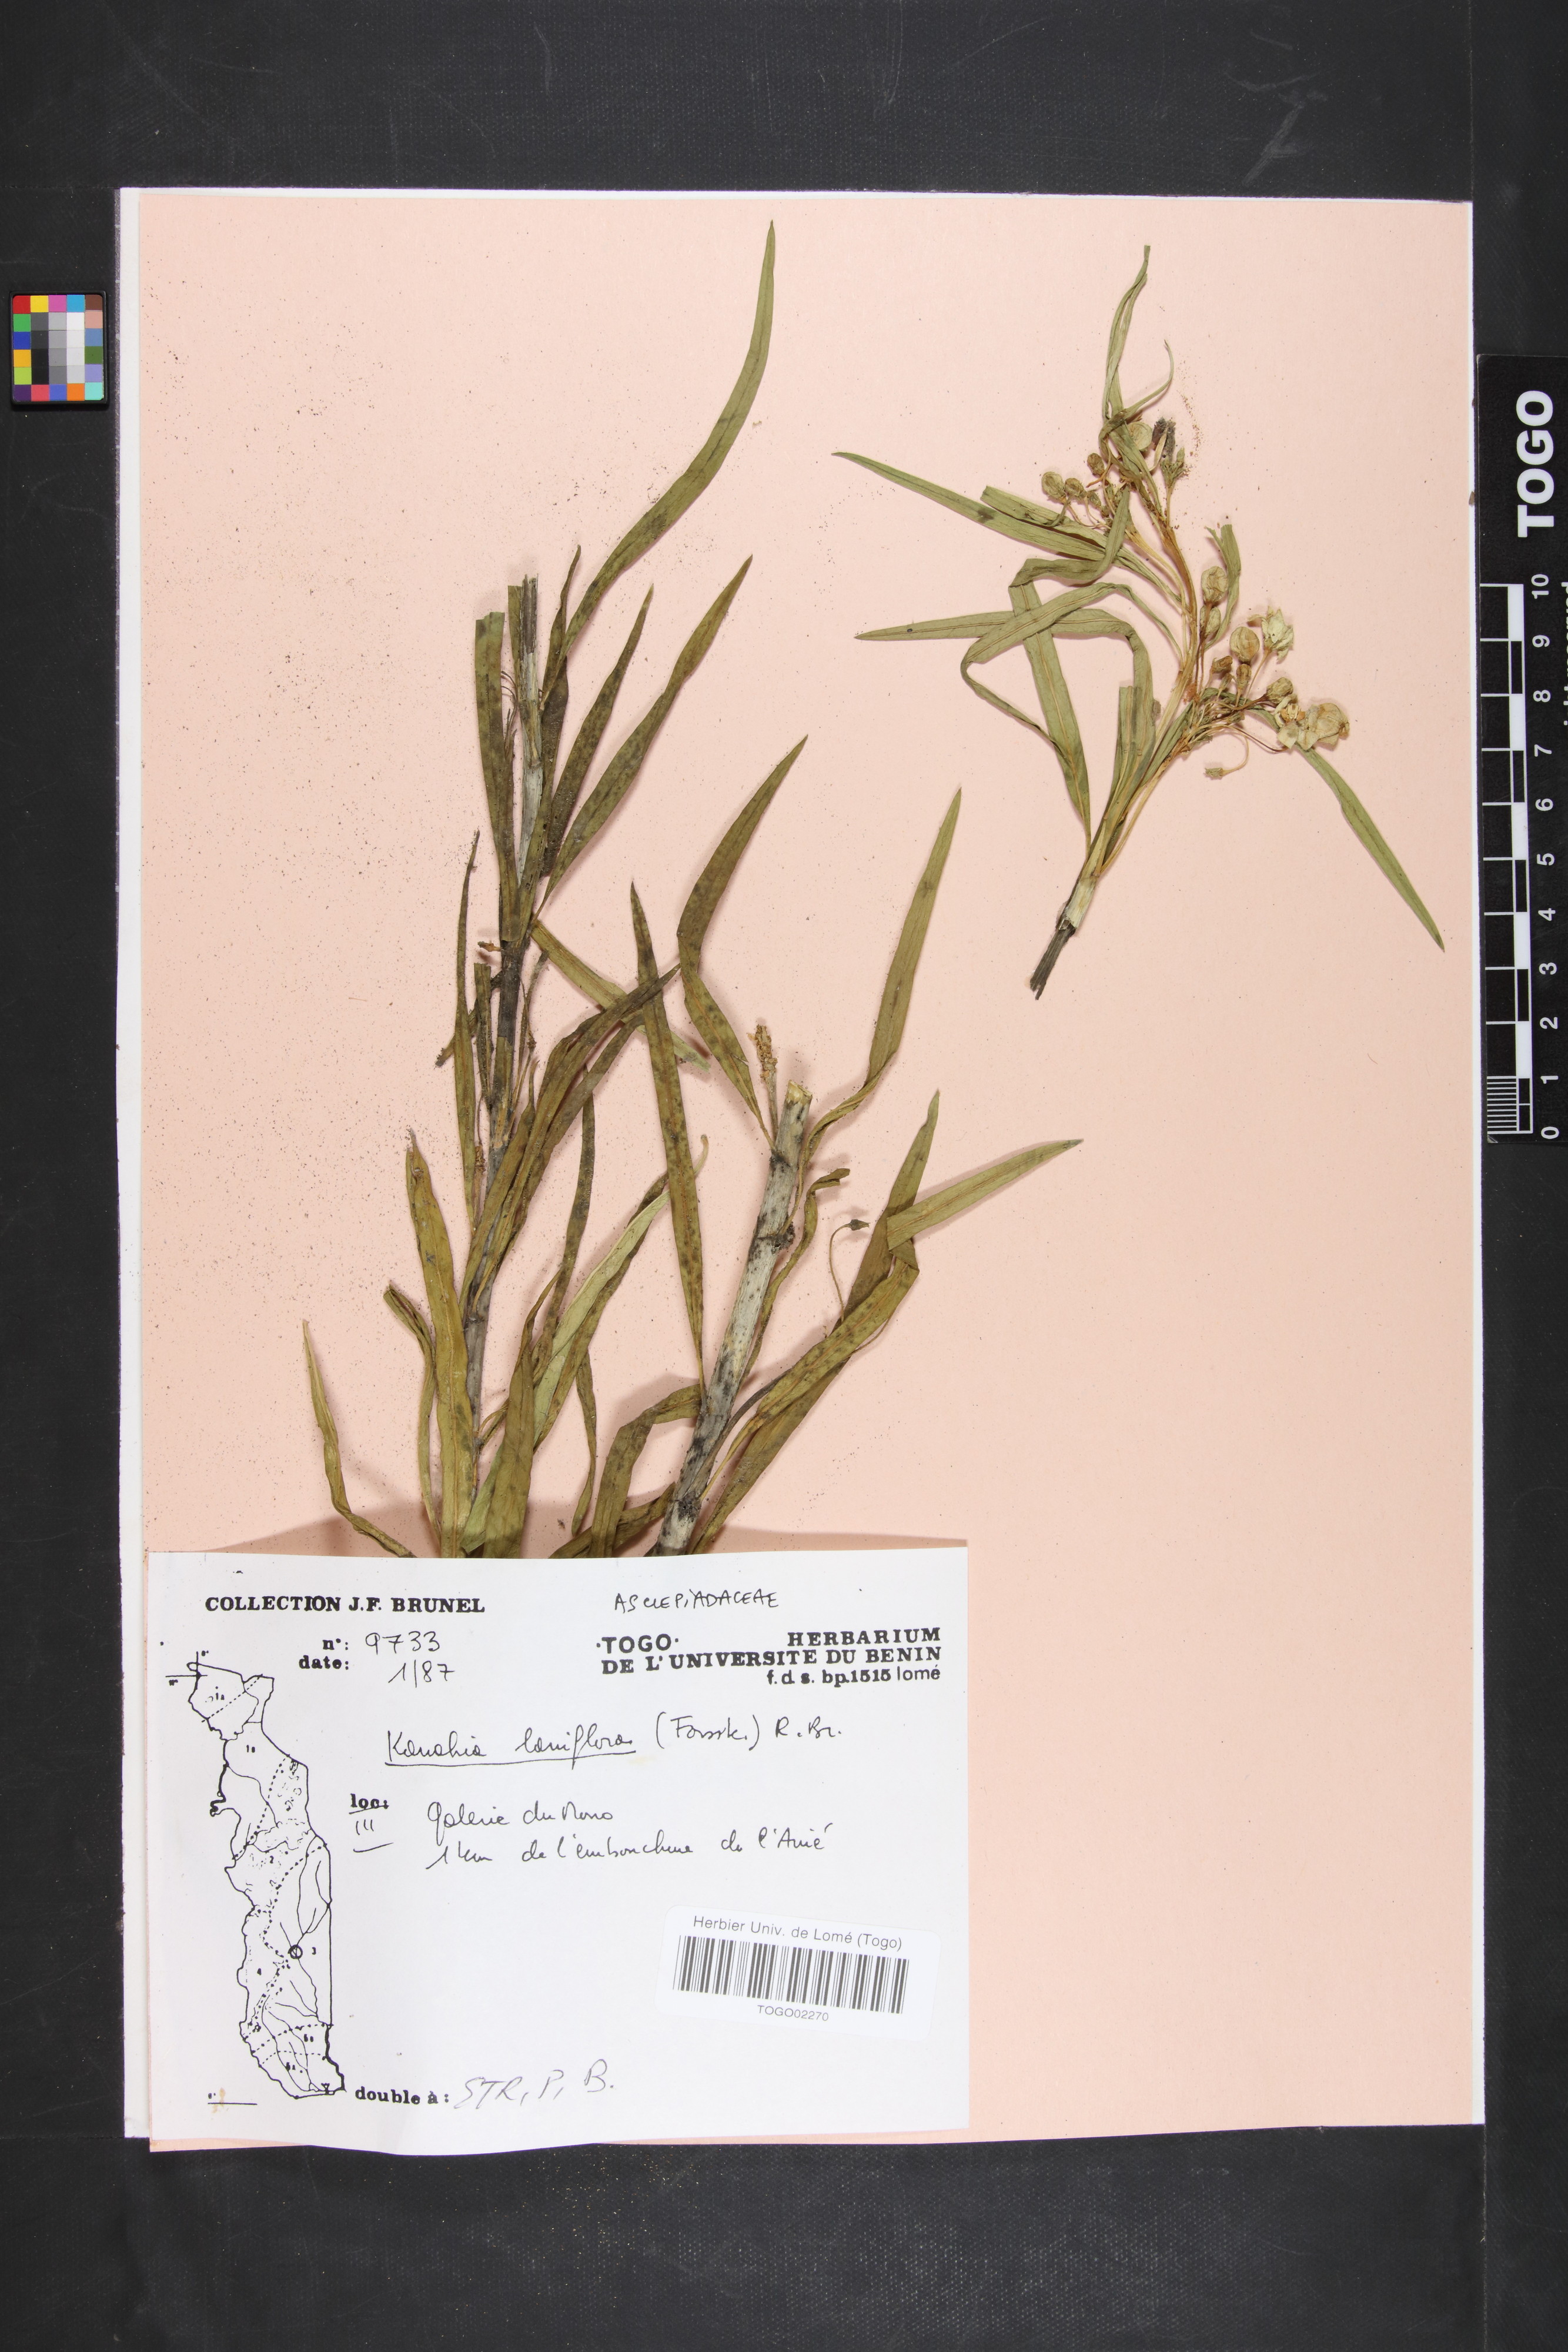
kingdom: Plantae
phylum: Tracheophyta
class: Magnoliopsida
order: Gentianales
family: Apocynaceae
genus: Kanahia
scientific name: Kanahia laniflora
